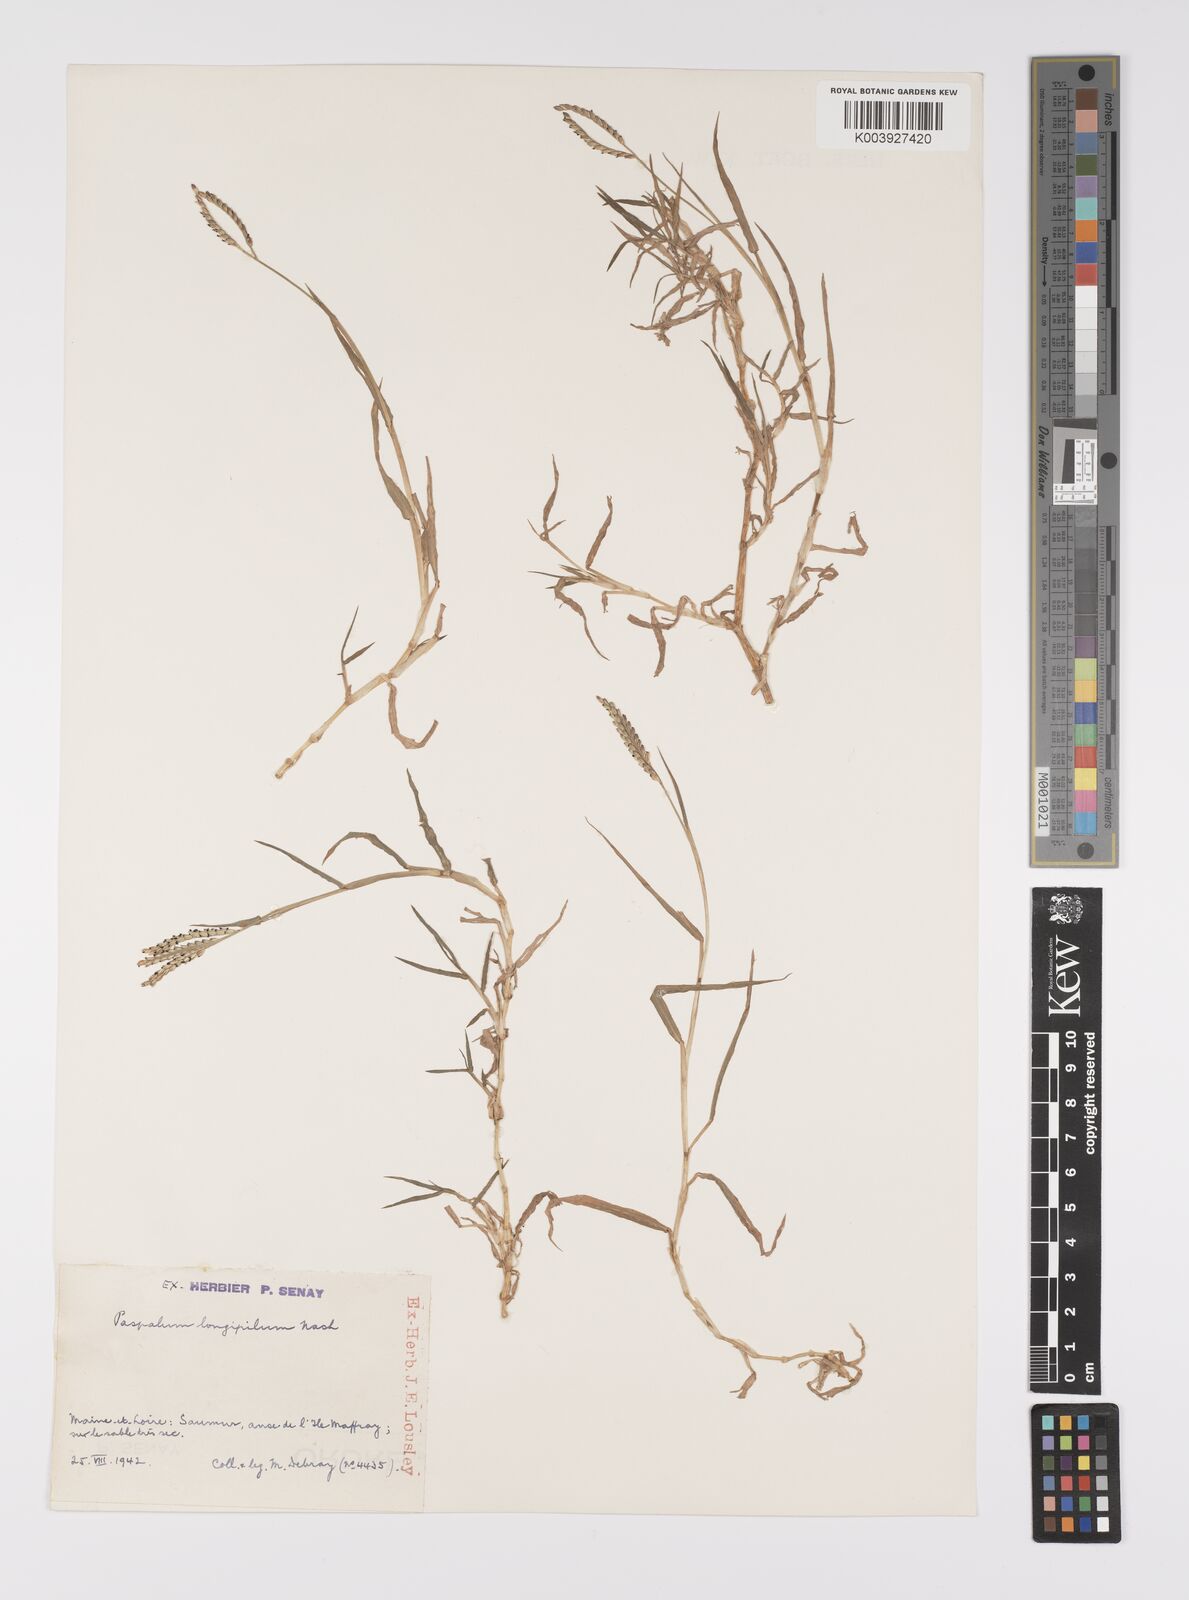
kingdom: Plantae
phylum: Tracheophyta
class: Liliopsida
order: Poales
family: Poaceae
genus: Paspalum
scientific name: Paspalum distichum
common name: Knotgrass
